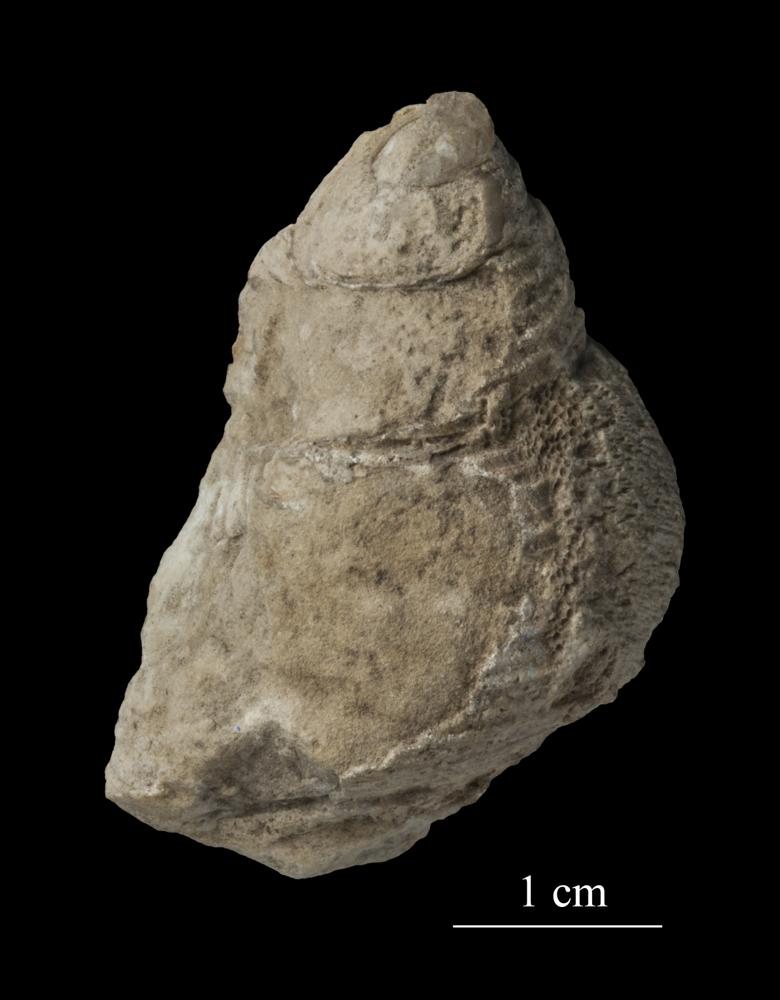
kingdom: Animalia
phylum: Mollusca
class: Gastropoda
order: Trochida
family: Trochidae
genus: Trochus
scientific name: Trochus
